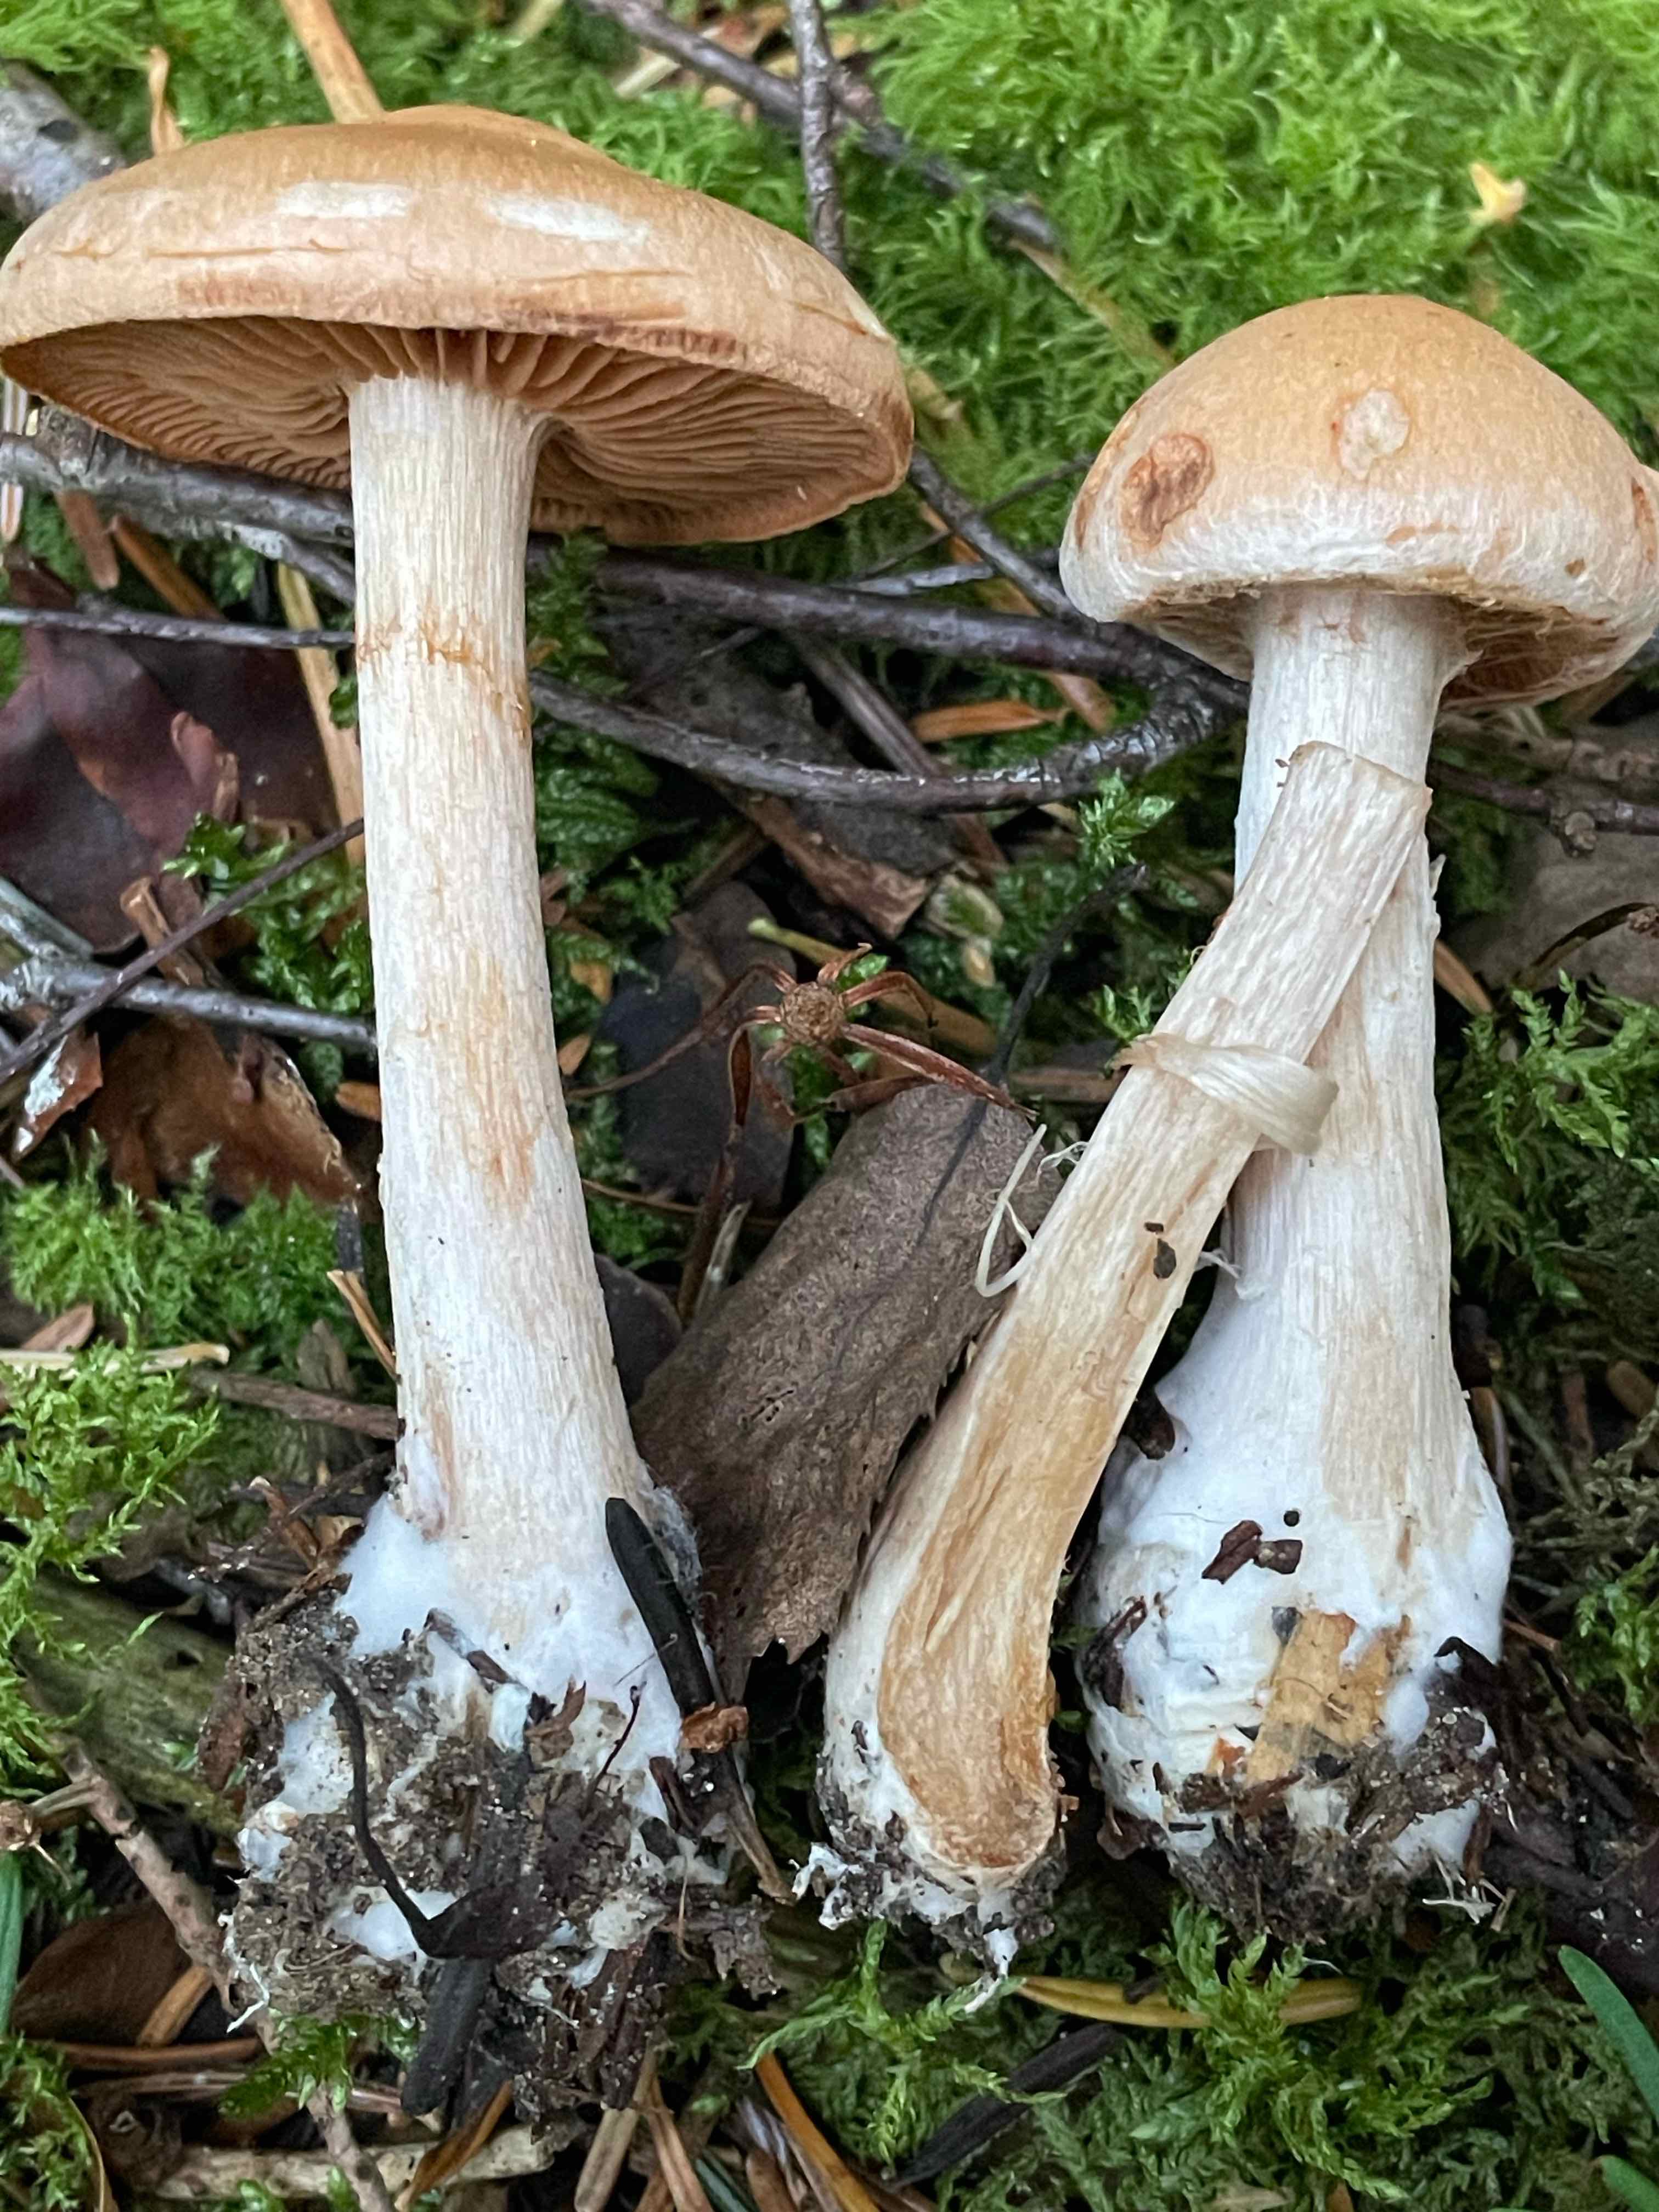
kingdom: Fungi
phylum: Basidiomycota
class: Agaricomycetes
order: Agaricales
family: Cortinariaceae
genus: Cortinarius
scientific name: Cortinarius
